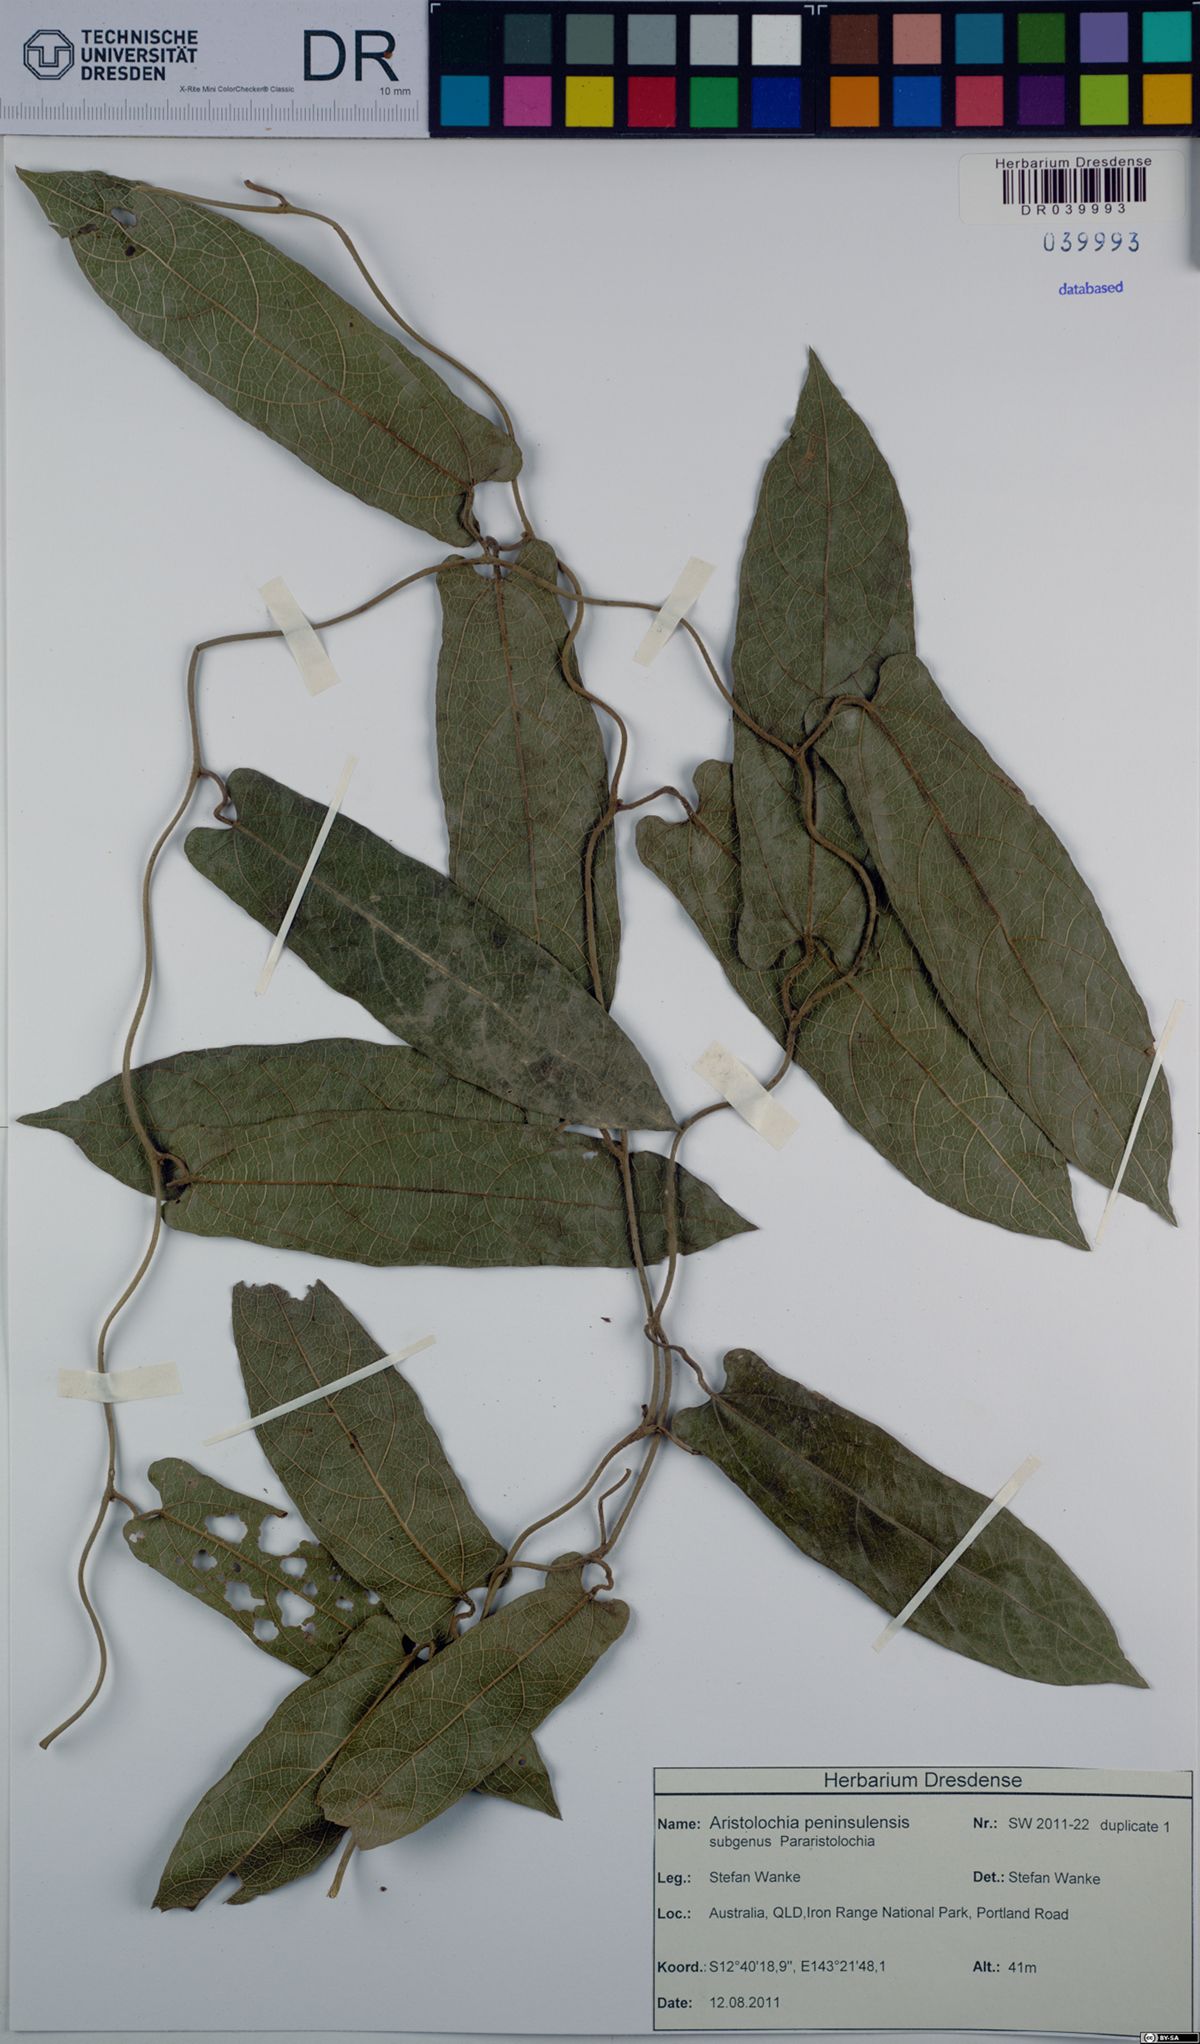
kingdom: Plantae
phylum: Tracheophyta
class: Magnoliopsida
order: Piperales
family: Aristolochiaceae
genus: Aristolochia
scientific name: Aristolochia peninsulensis
